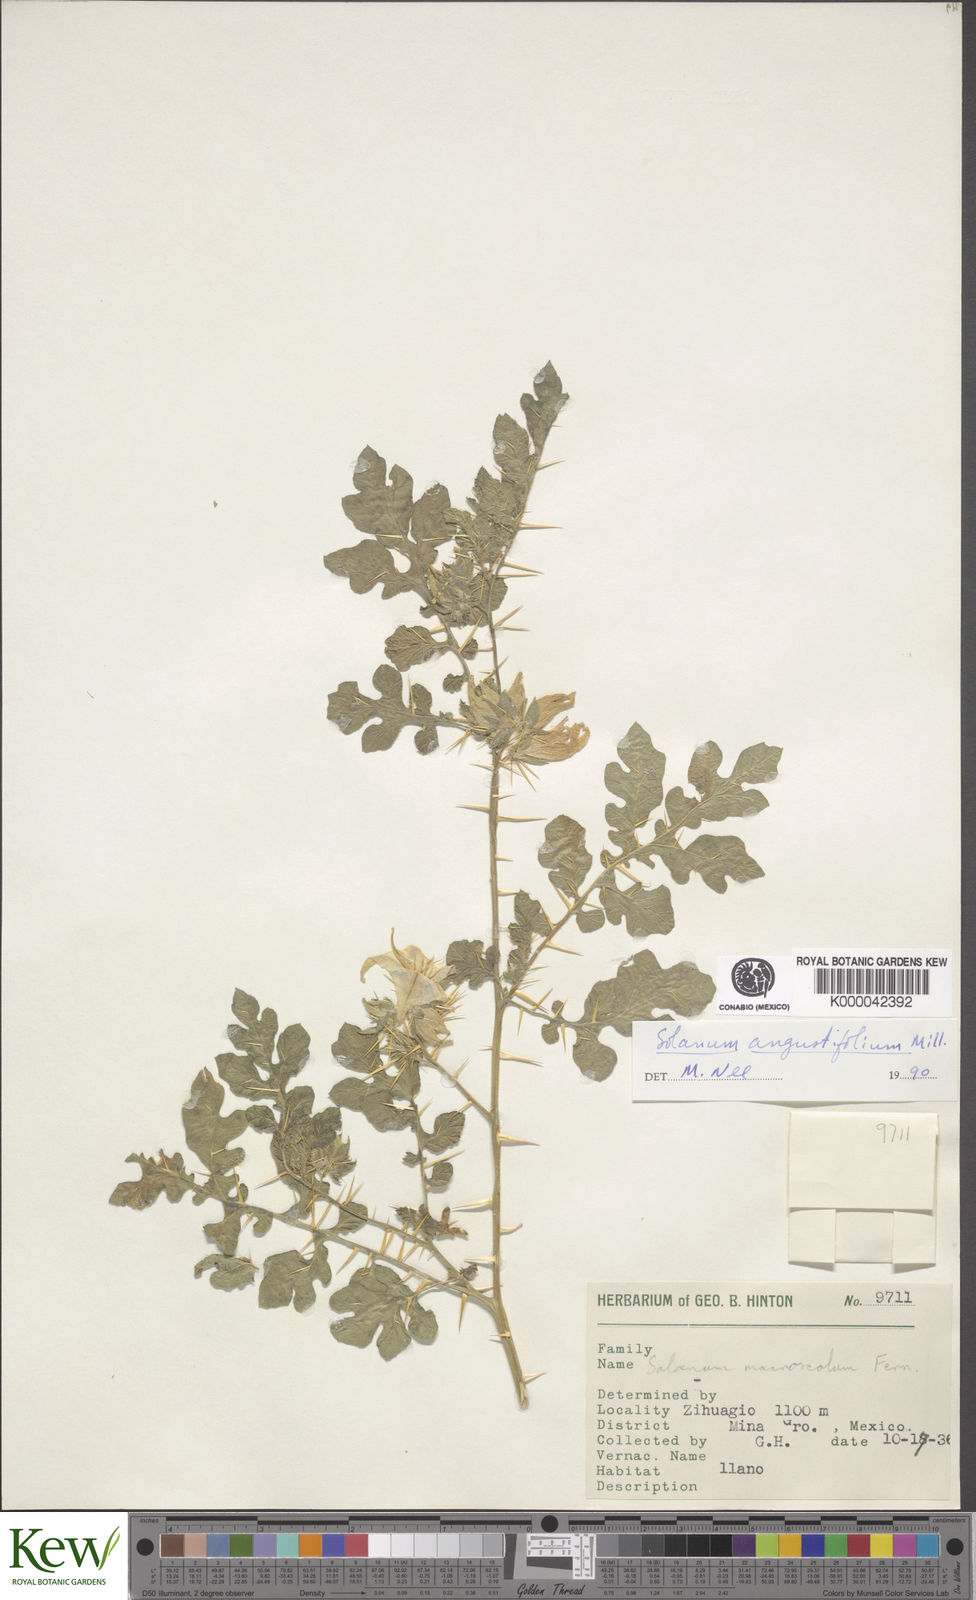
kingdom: Plantae
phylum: Tracheophyta
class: Magnoliopsida
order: Solanales
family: Solanaceae
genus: Solanum
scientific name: Solanum angustifolium
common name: Buffalobur nightshade
